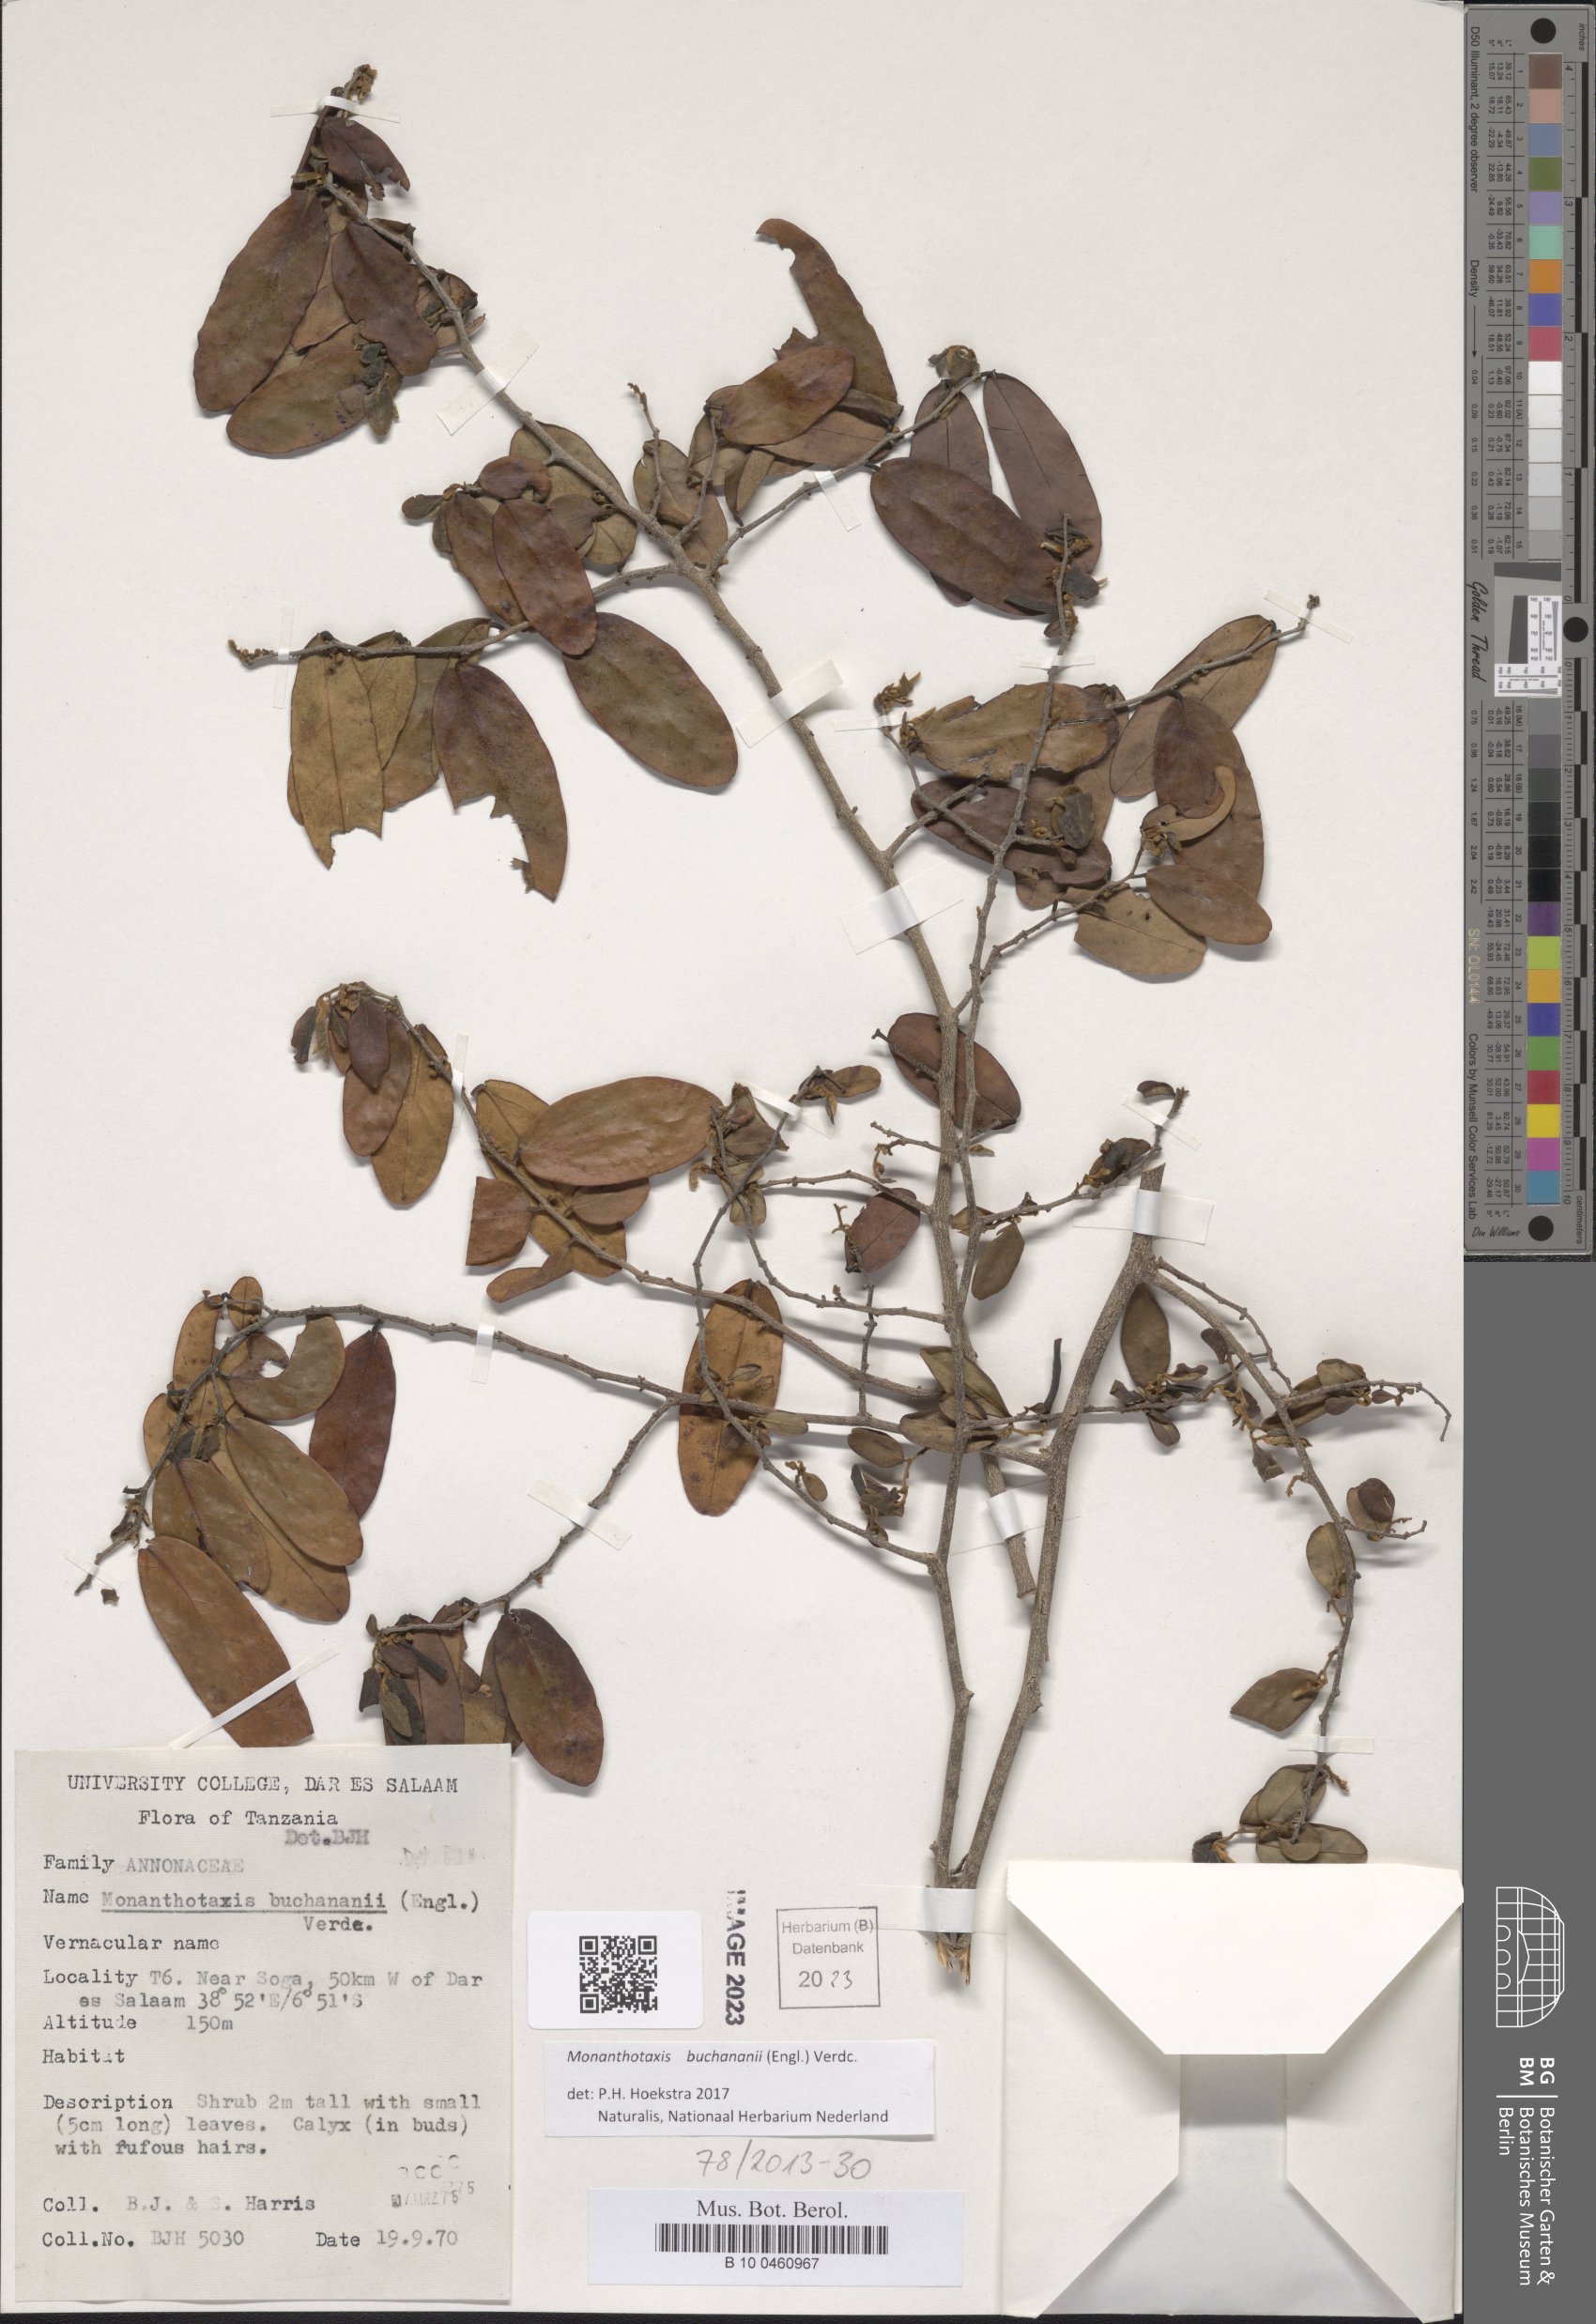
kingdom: Plantae
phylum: Tracheophyta
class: Magnoliopsida
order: Magnoliales
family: Annonaceae
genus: Monanthotaxis
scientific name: Monanthotaxis buchananii
